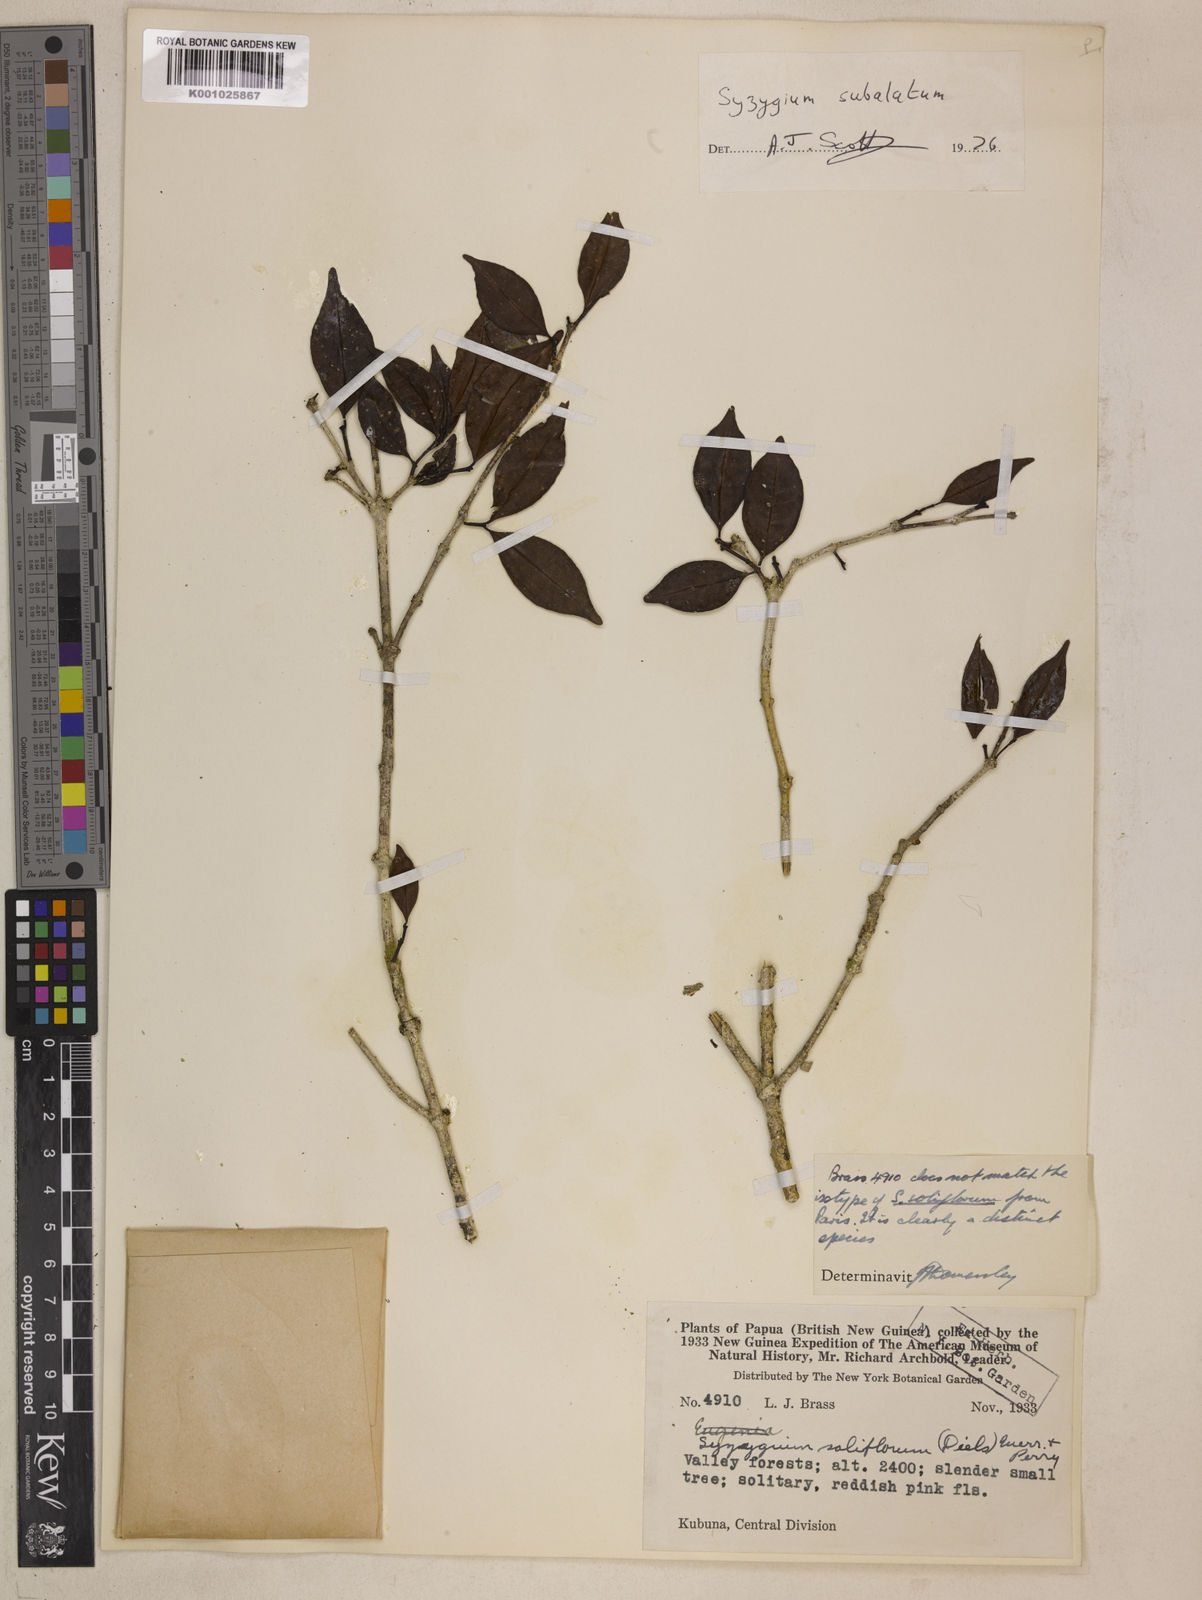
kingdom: Plantae
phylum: Tracheophyta
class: Magnoliopsida
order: Myrtales
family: Myrtaceae
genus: Syzygium
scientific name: Syzygium subalatum
